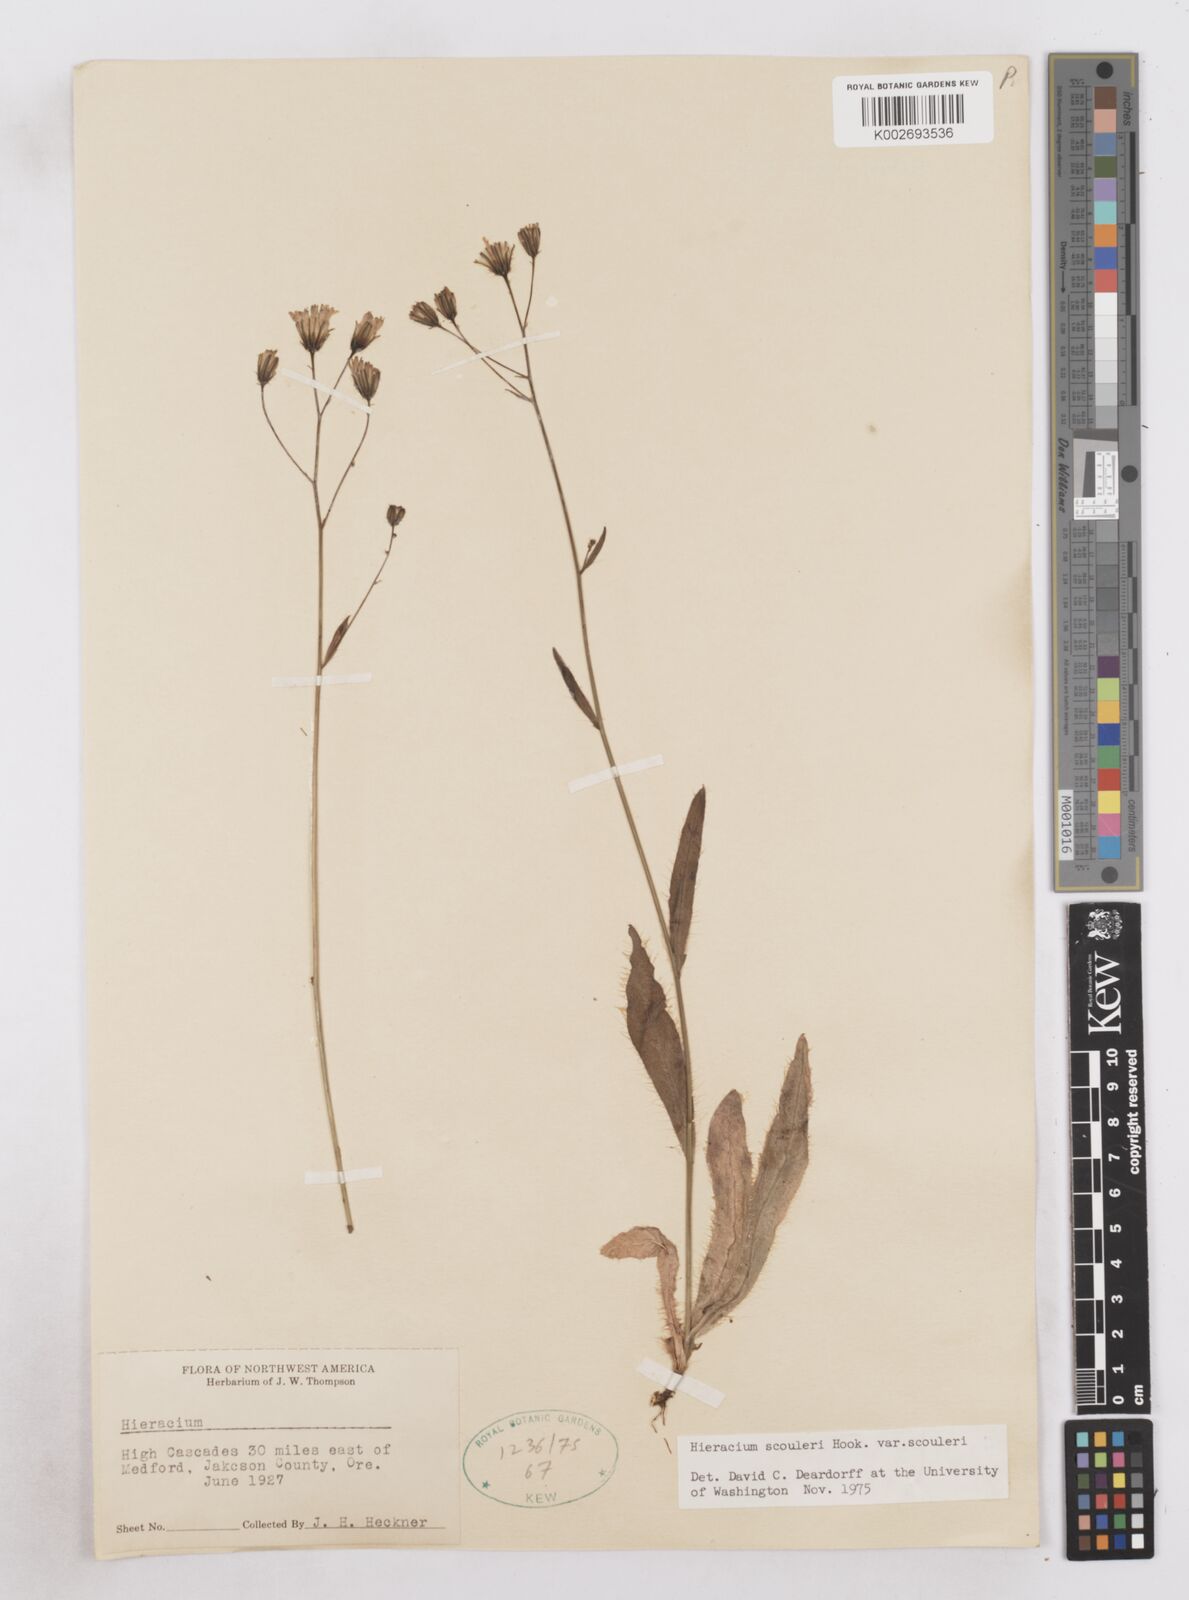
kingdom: Plantae
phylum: Tracheophyta
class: Magnoliopsida
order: Asterales
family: Asteraceae
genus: Hieracium
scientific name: Hieracium scouleri
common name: Hound's-tongue hawkweed
